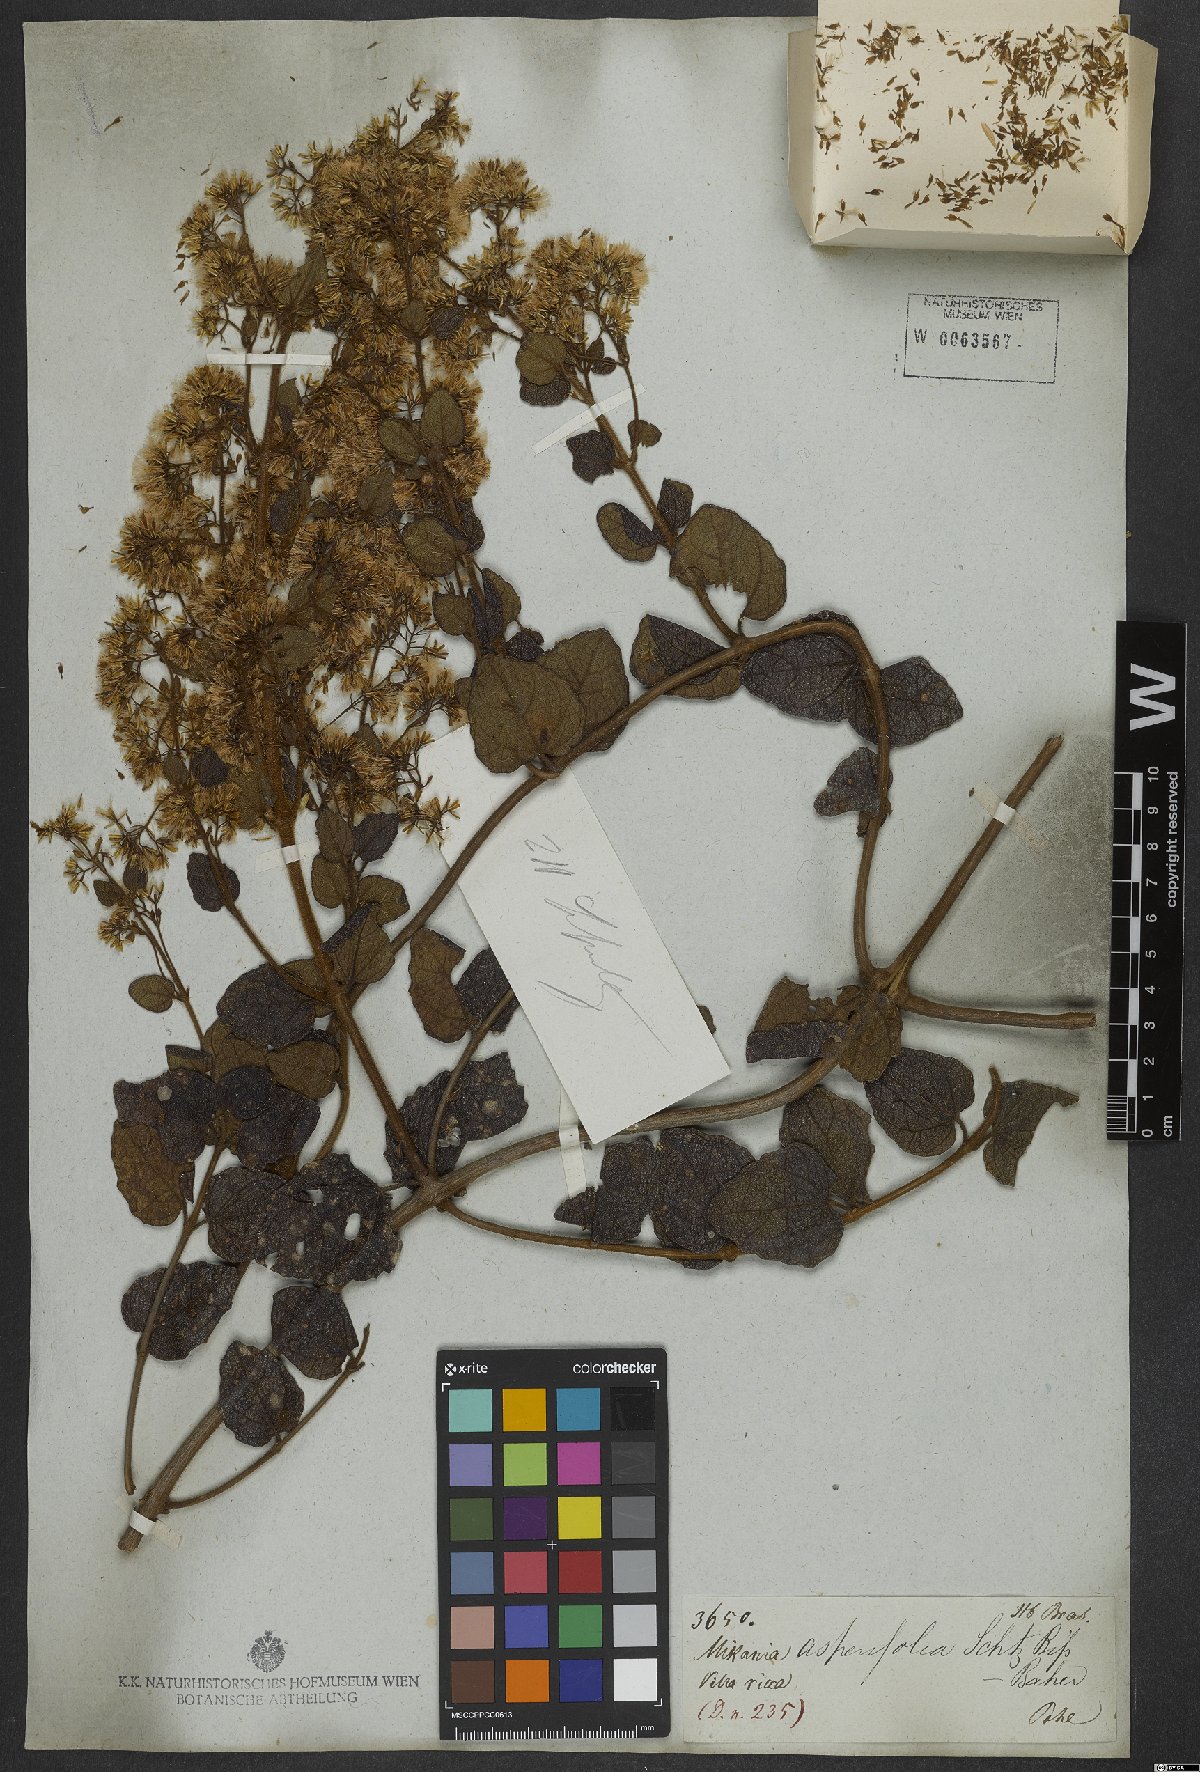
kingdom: Plantae
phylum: Tracheophyta
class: Magnoliopsida
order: Asterales
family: Asteraceae
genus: Mikania
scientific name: Mikania phaeoclados
